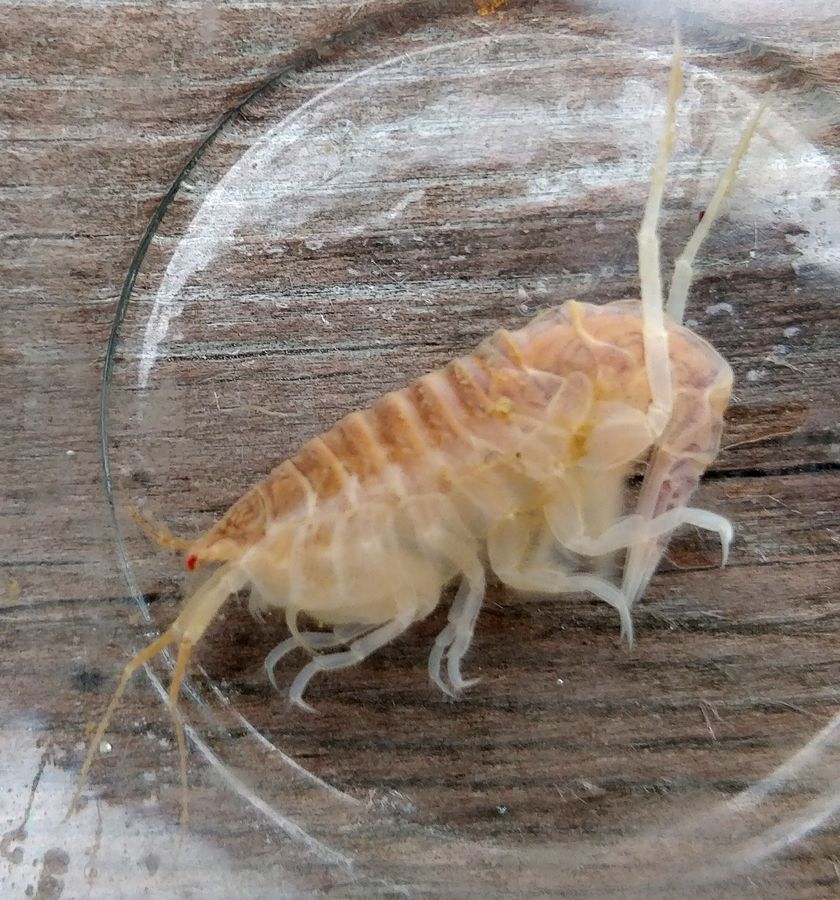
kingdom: Animalia
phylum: Arthropoda
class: Malacostraca
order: Amphipoda
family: Oedicerotidae
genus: Paroediceros
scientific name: Paroediceros lynceus
